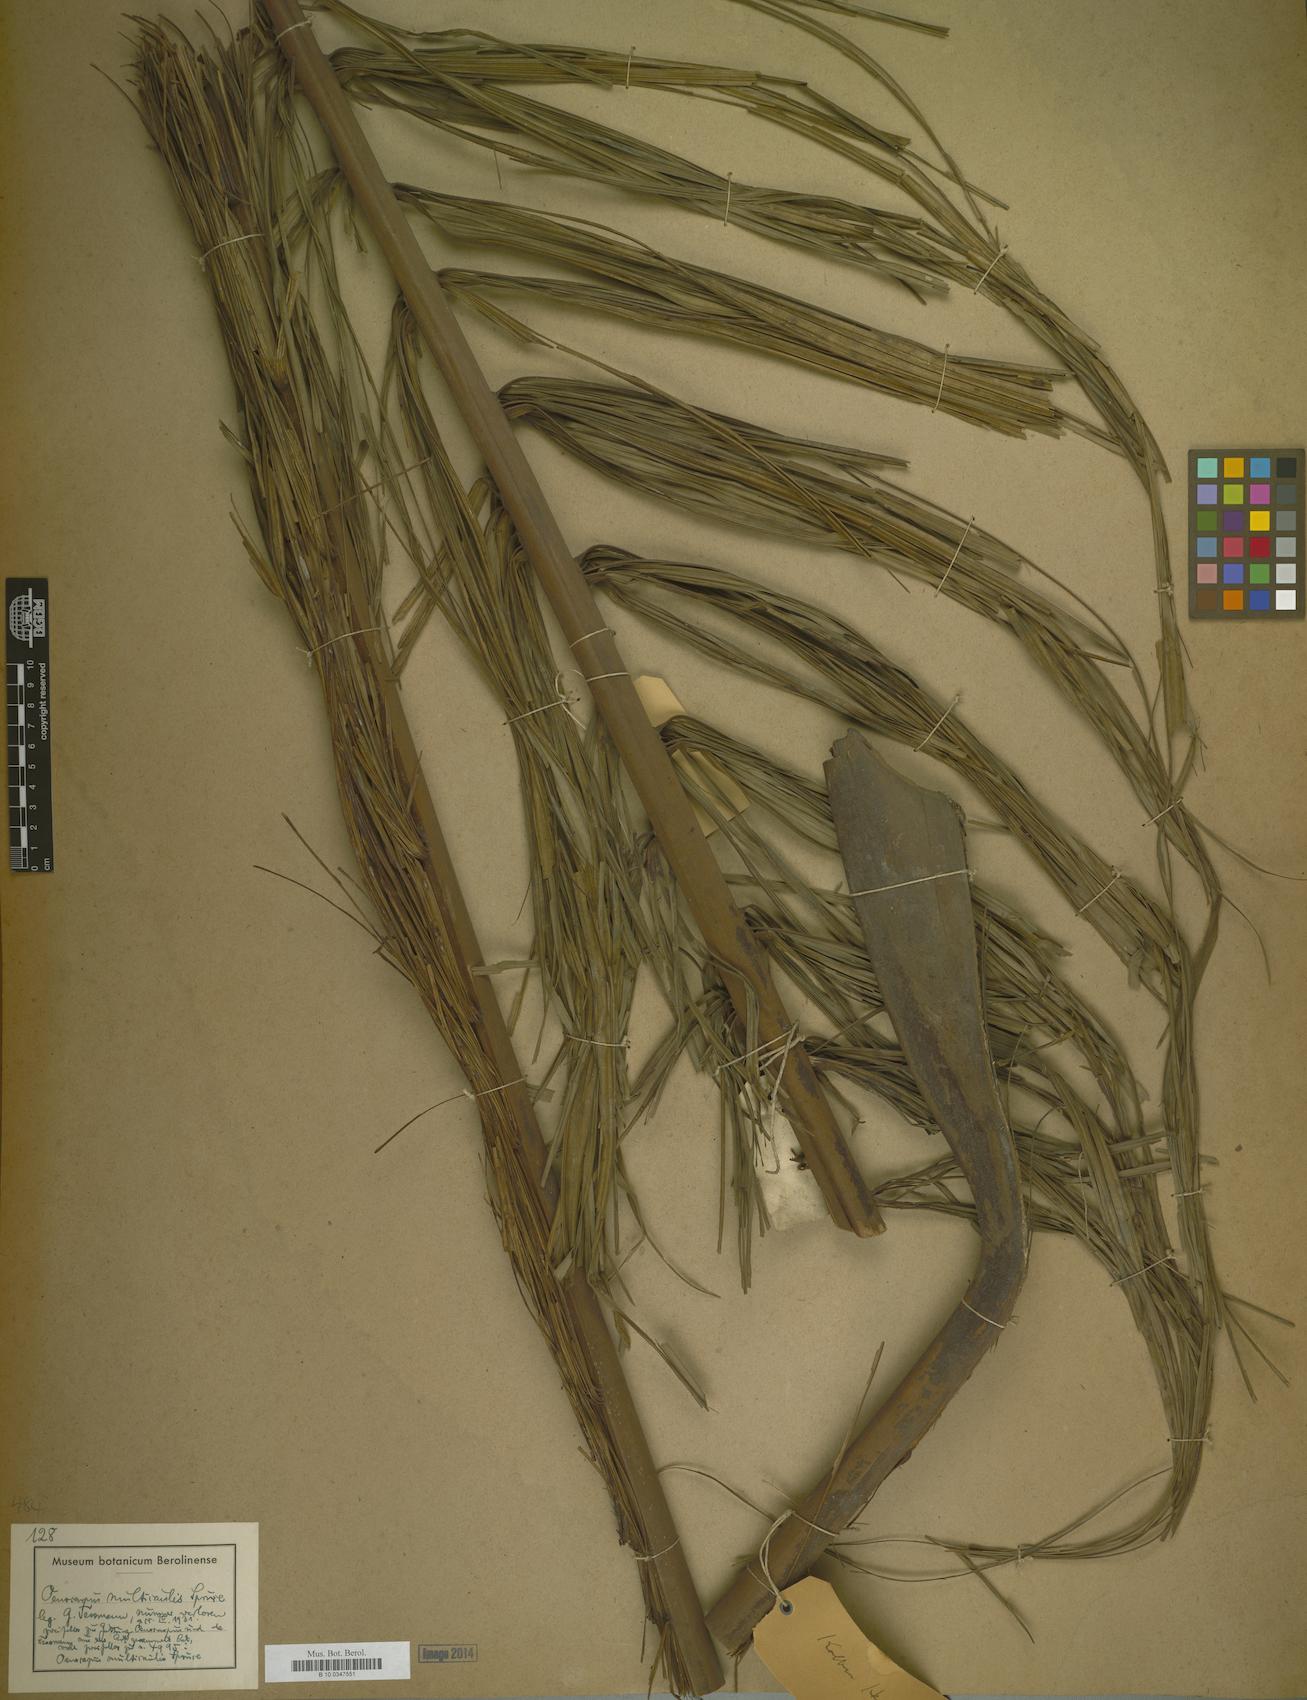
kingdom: Plantae
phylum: Tracheophyta
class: Liliopsida
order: Arecales
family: Arecaceae
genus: Oenocarpus
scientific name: Oenocarpus mapora
